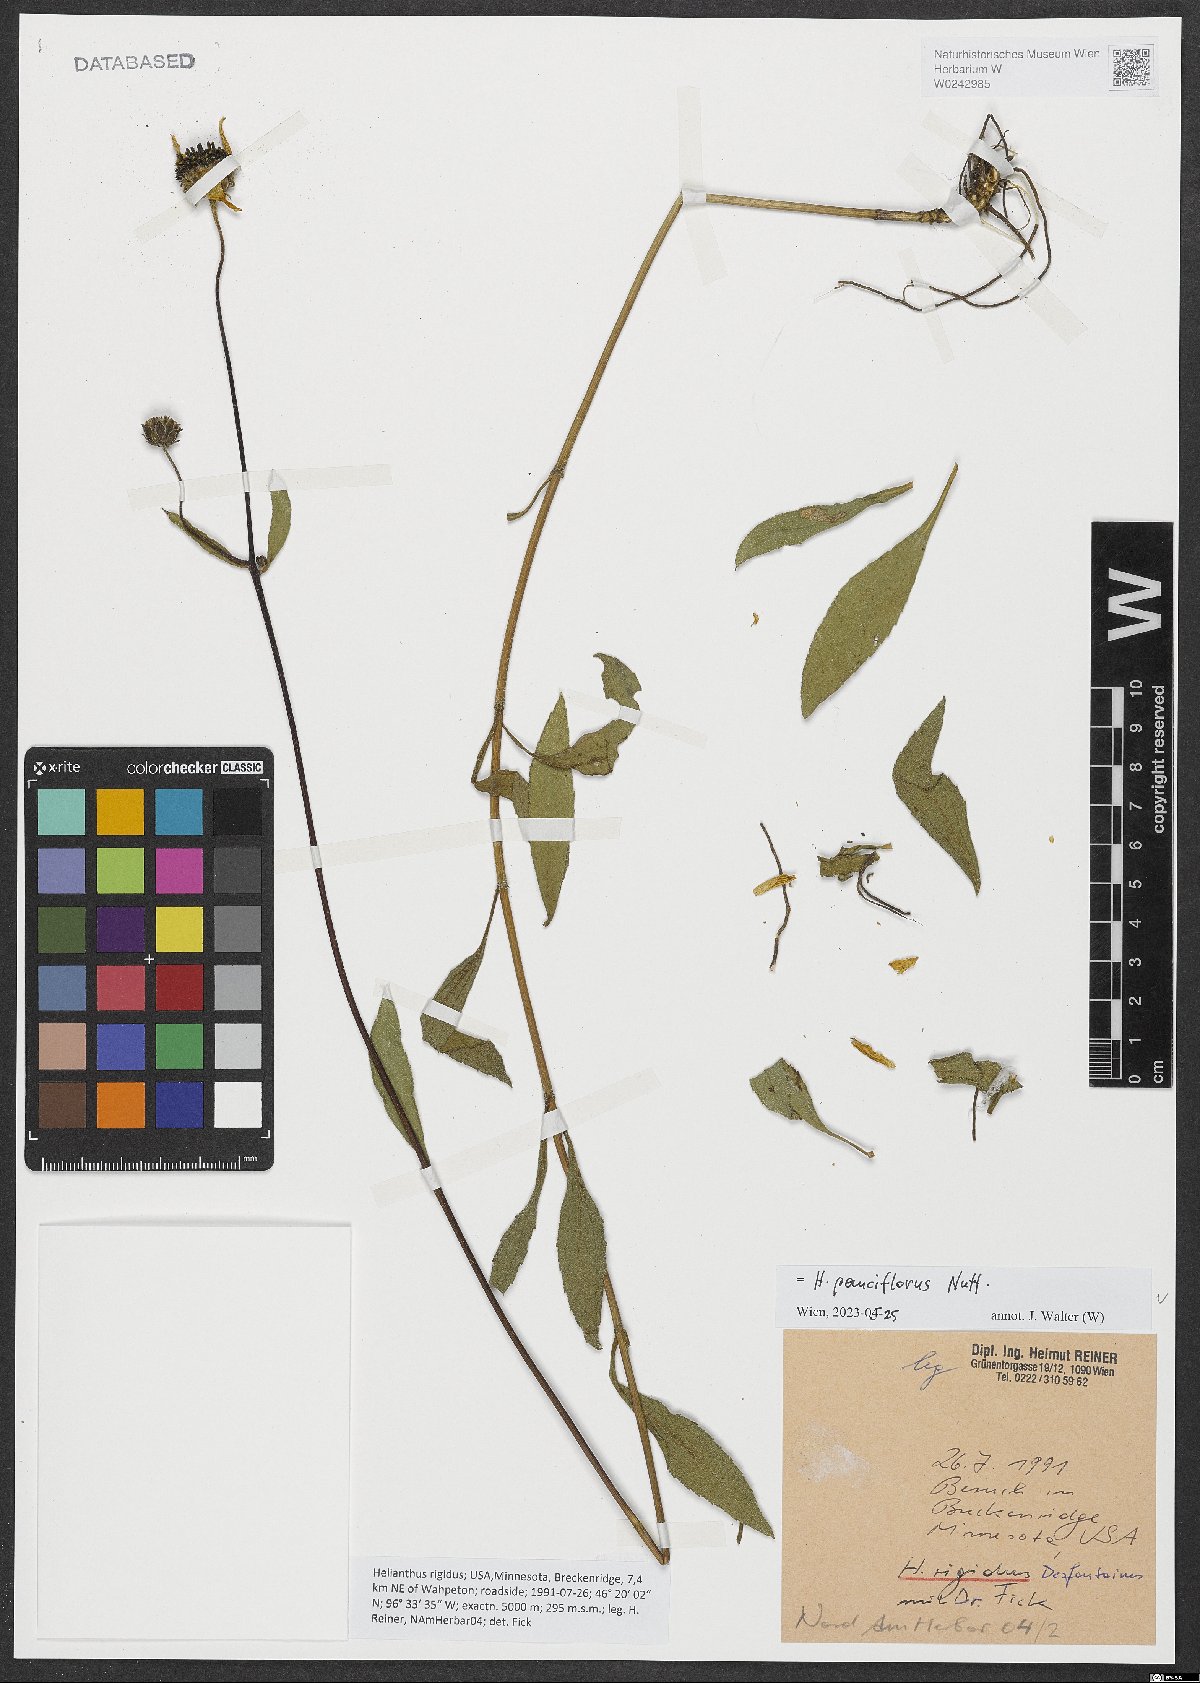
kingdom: Plantae
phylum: Tracheophyta
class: Magnoliopsida
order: Asterales
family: Asteraceae
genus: Helianthus
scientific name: Helianthus pauciflorus
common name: Stiff sunflower
